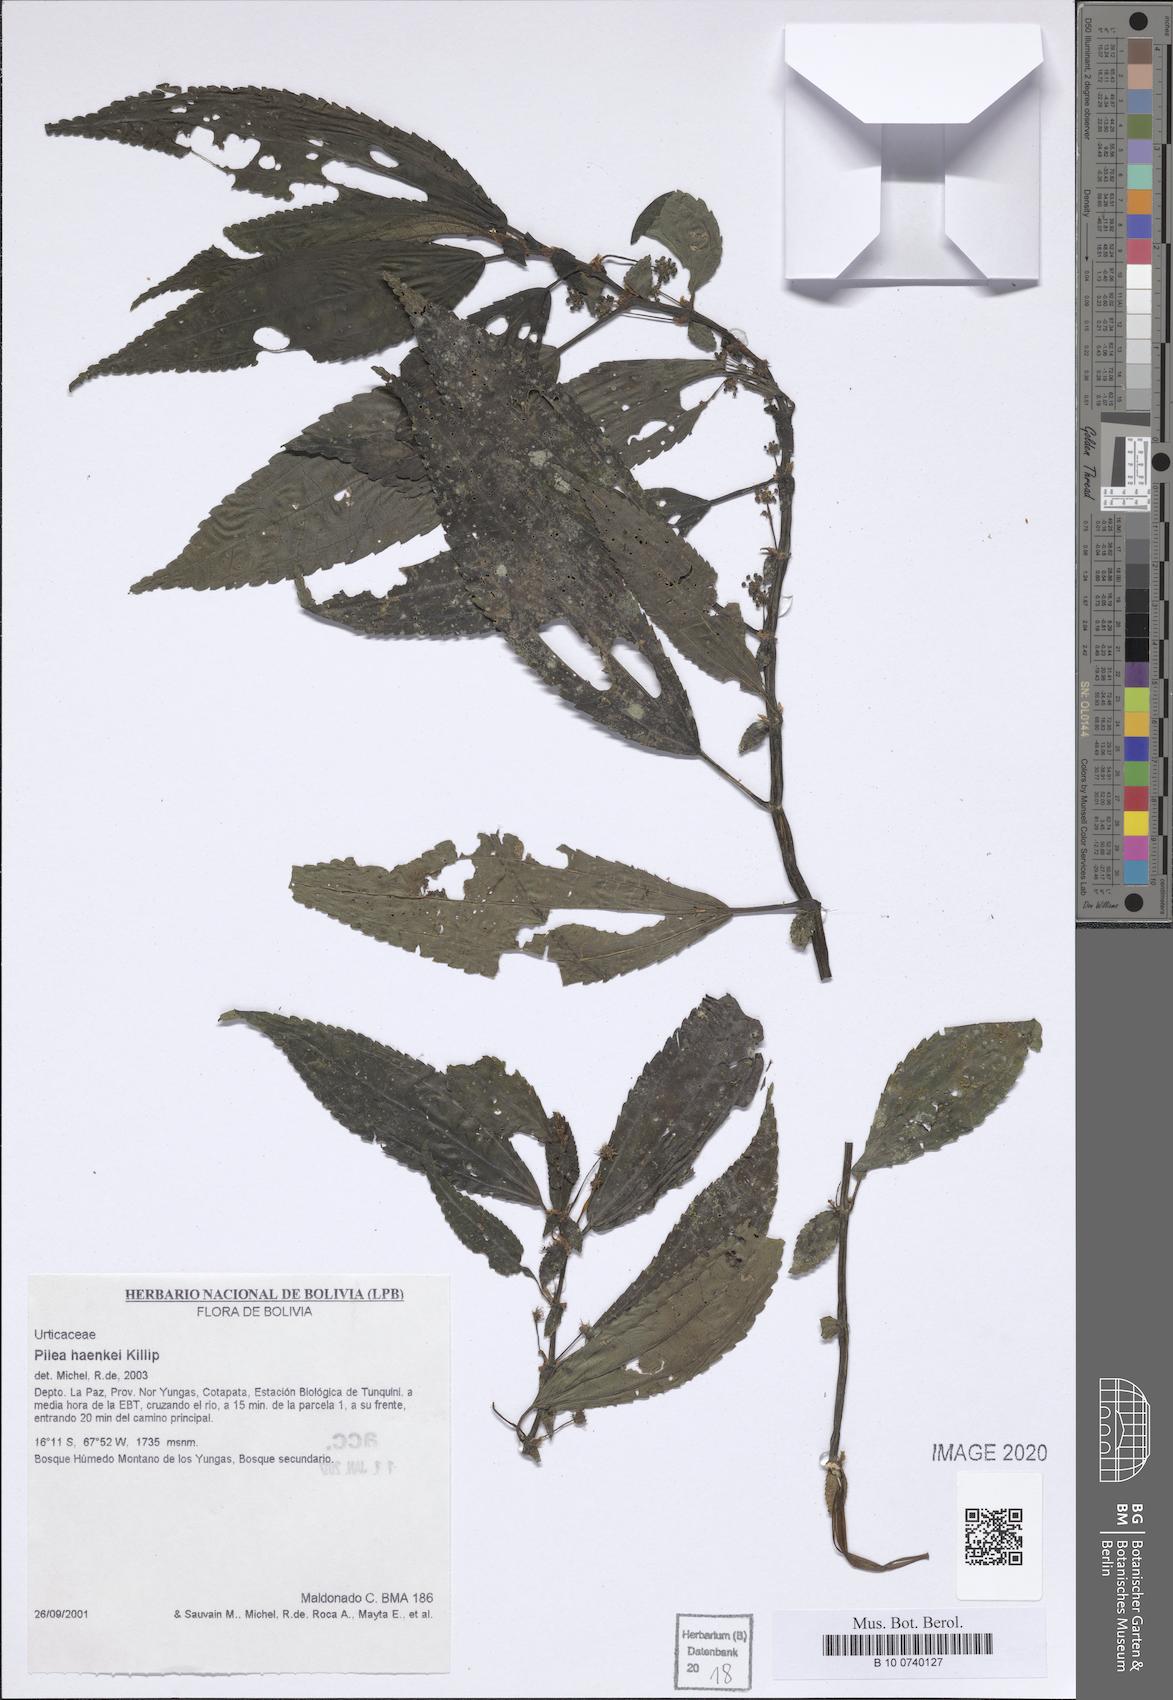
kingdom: Plantae
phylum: Tracheophyta
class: Magnoliopsida
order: Rosales
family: Urticaceae
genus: Pilea
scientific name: Pilea haenkei
